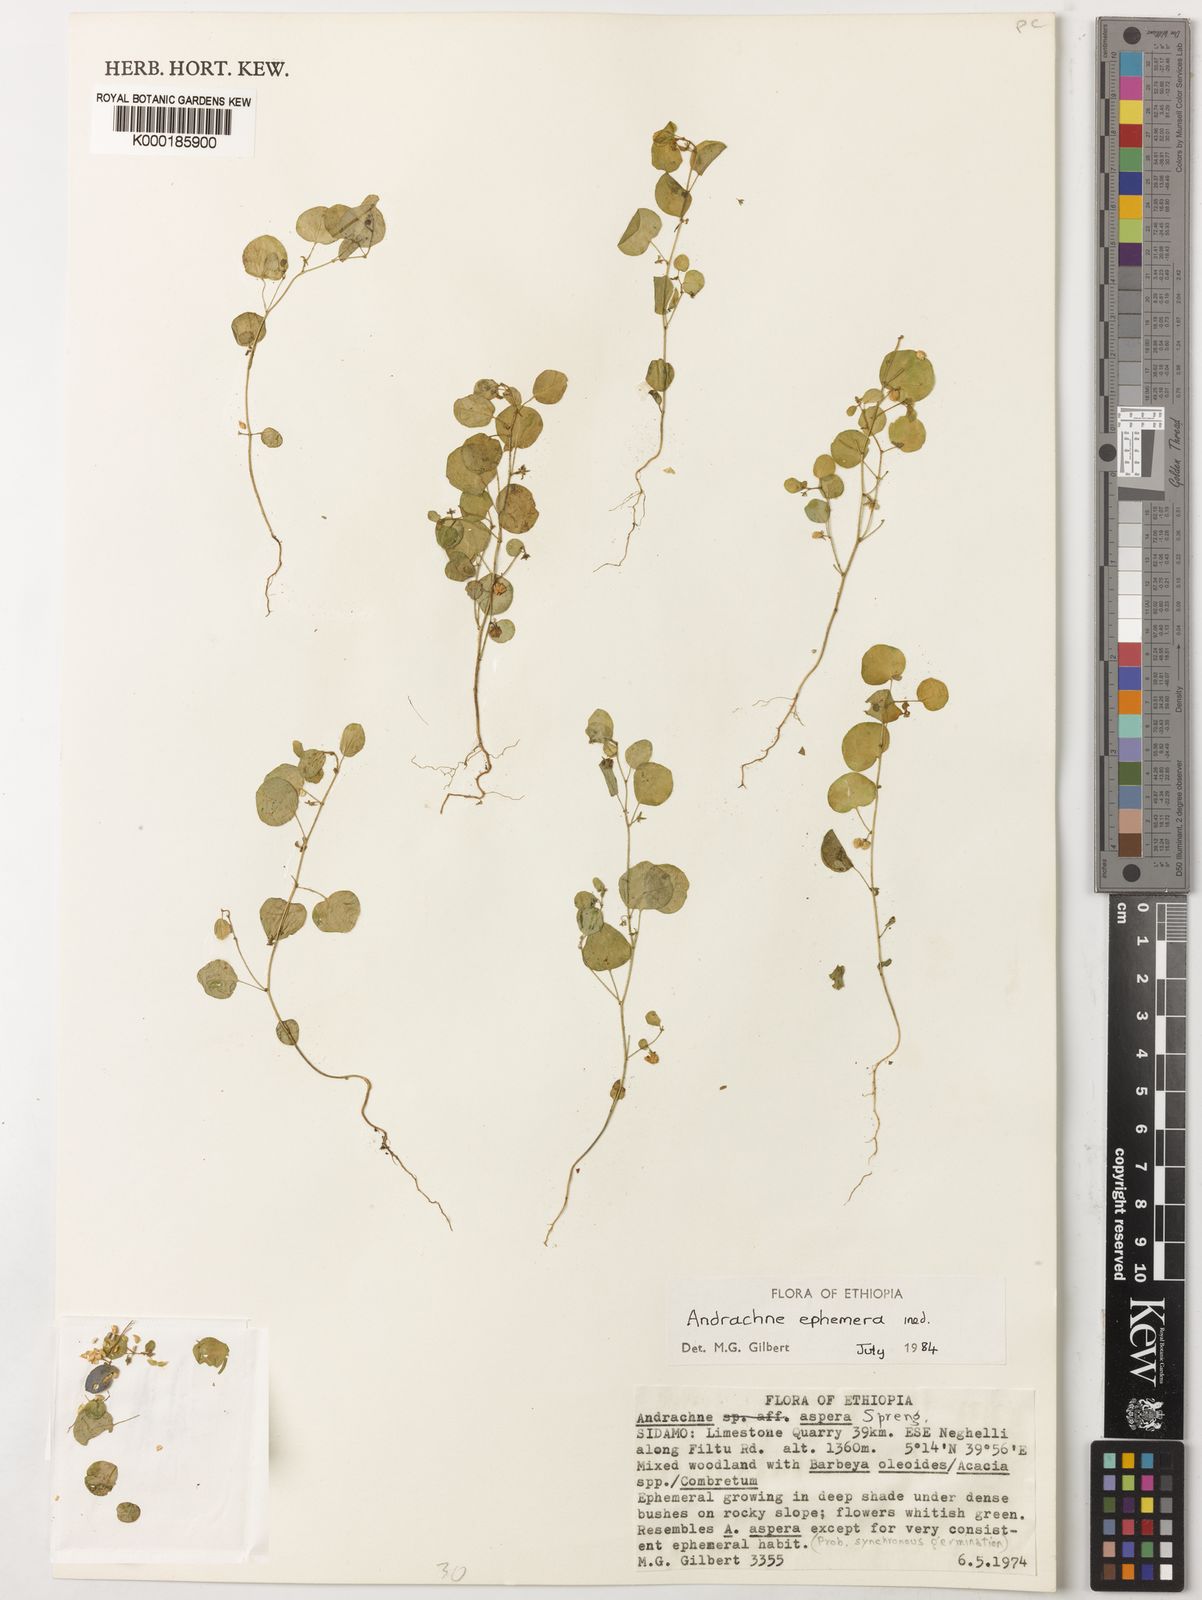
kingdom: Plantae
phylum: Tracheophyta
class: Magnoliopsida
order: Malpighiales
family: Phyllanthaceae
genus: Andrachne
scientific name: Andrachne ephemera
